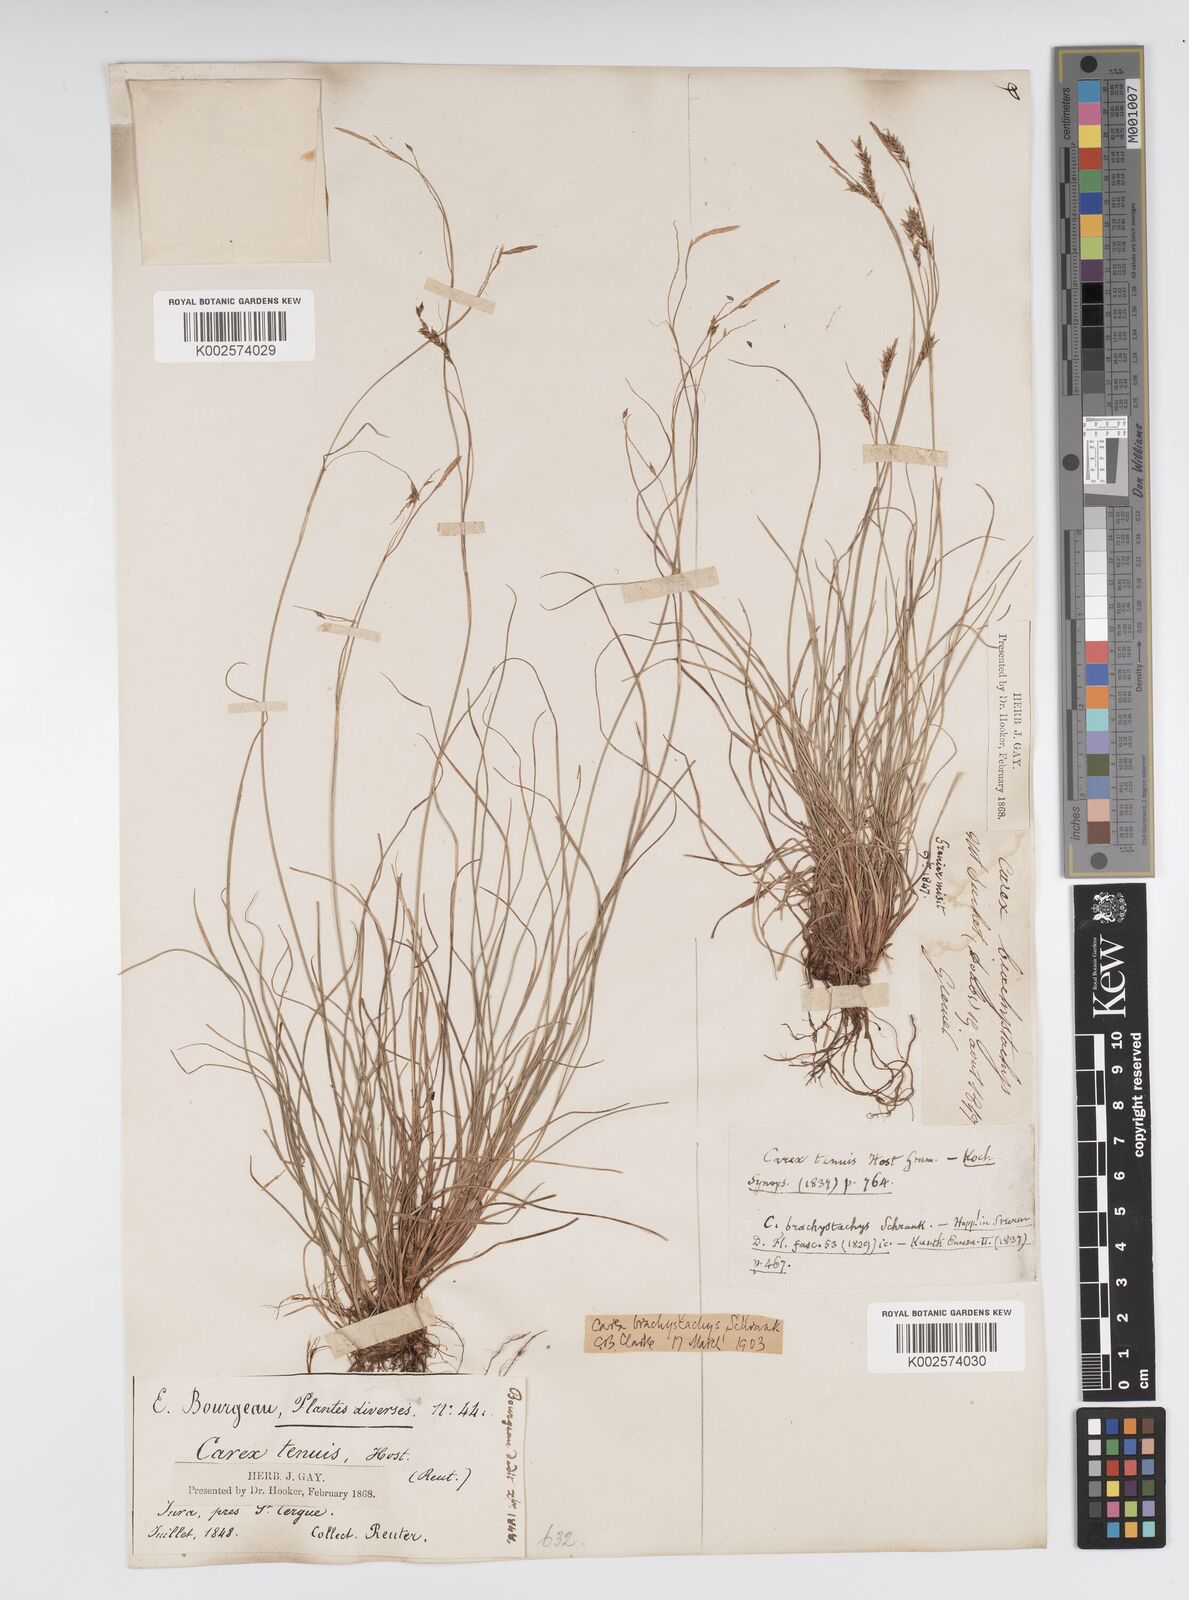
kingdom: Plantae
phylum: Tracheophyta
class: Liliopsida
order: Poales
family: Cyperaceae
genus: Carex
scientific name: Carex brachystachys
